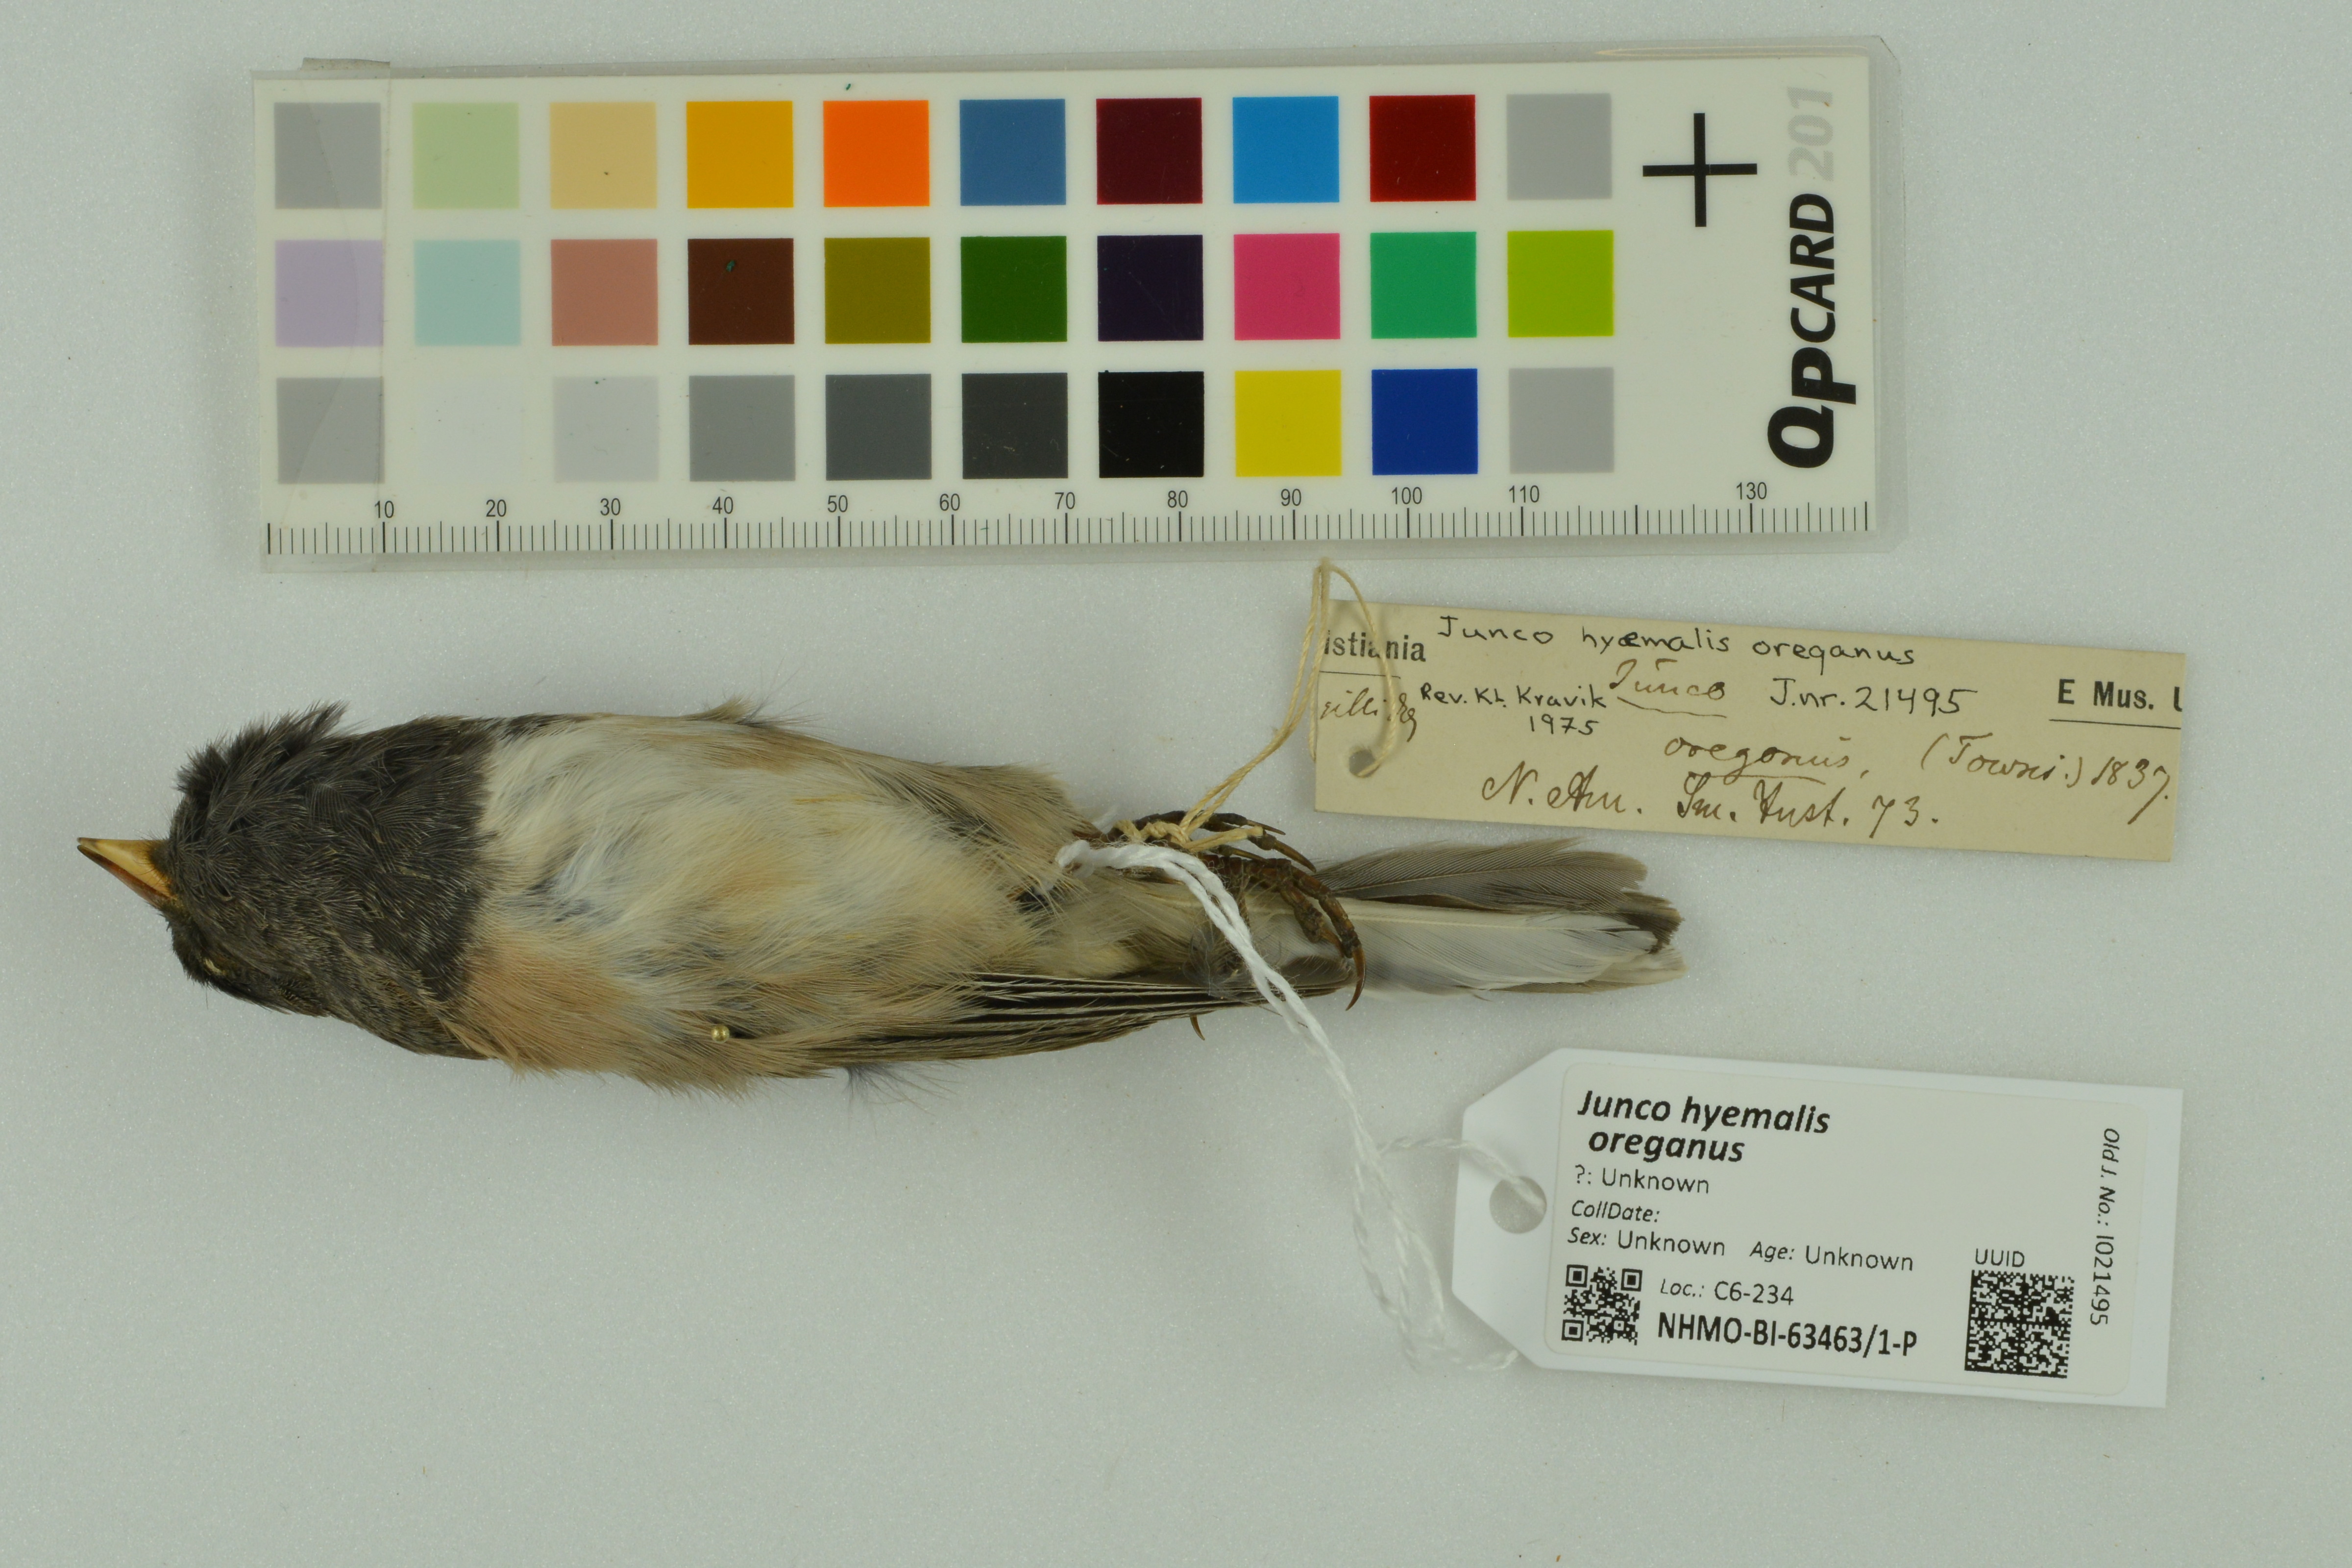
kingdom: Animalia
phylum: Chordata
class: Aves
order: Passeriformes
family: Passerellidae
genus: Junco
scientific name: Junco hyemalis
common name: Dark-eyed junco
